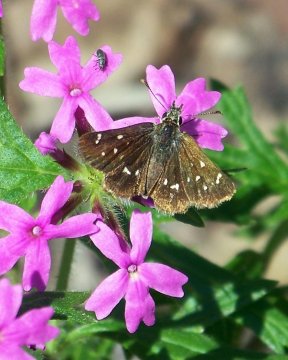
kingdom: Animalia
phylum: Arthropoda
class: Insecta
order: Lepidoptera
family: Hesperiidae
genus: Piruna
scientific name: Piruna polingii
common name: Four-spotted Skipperling
